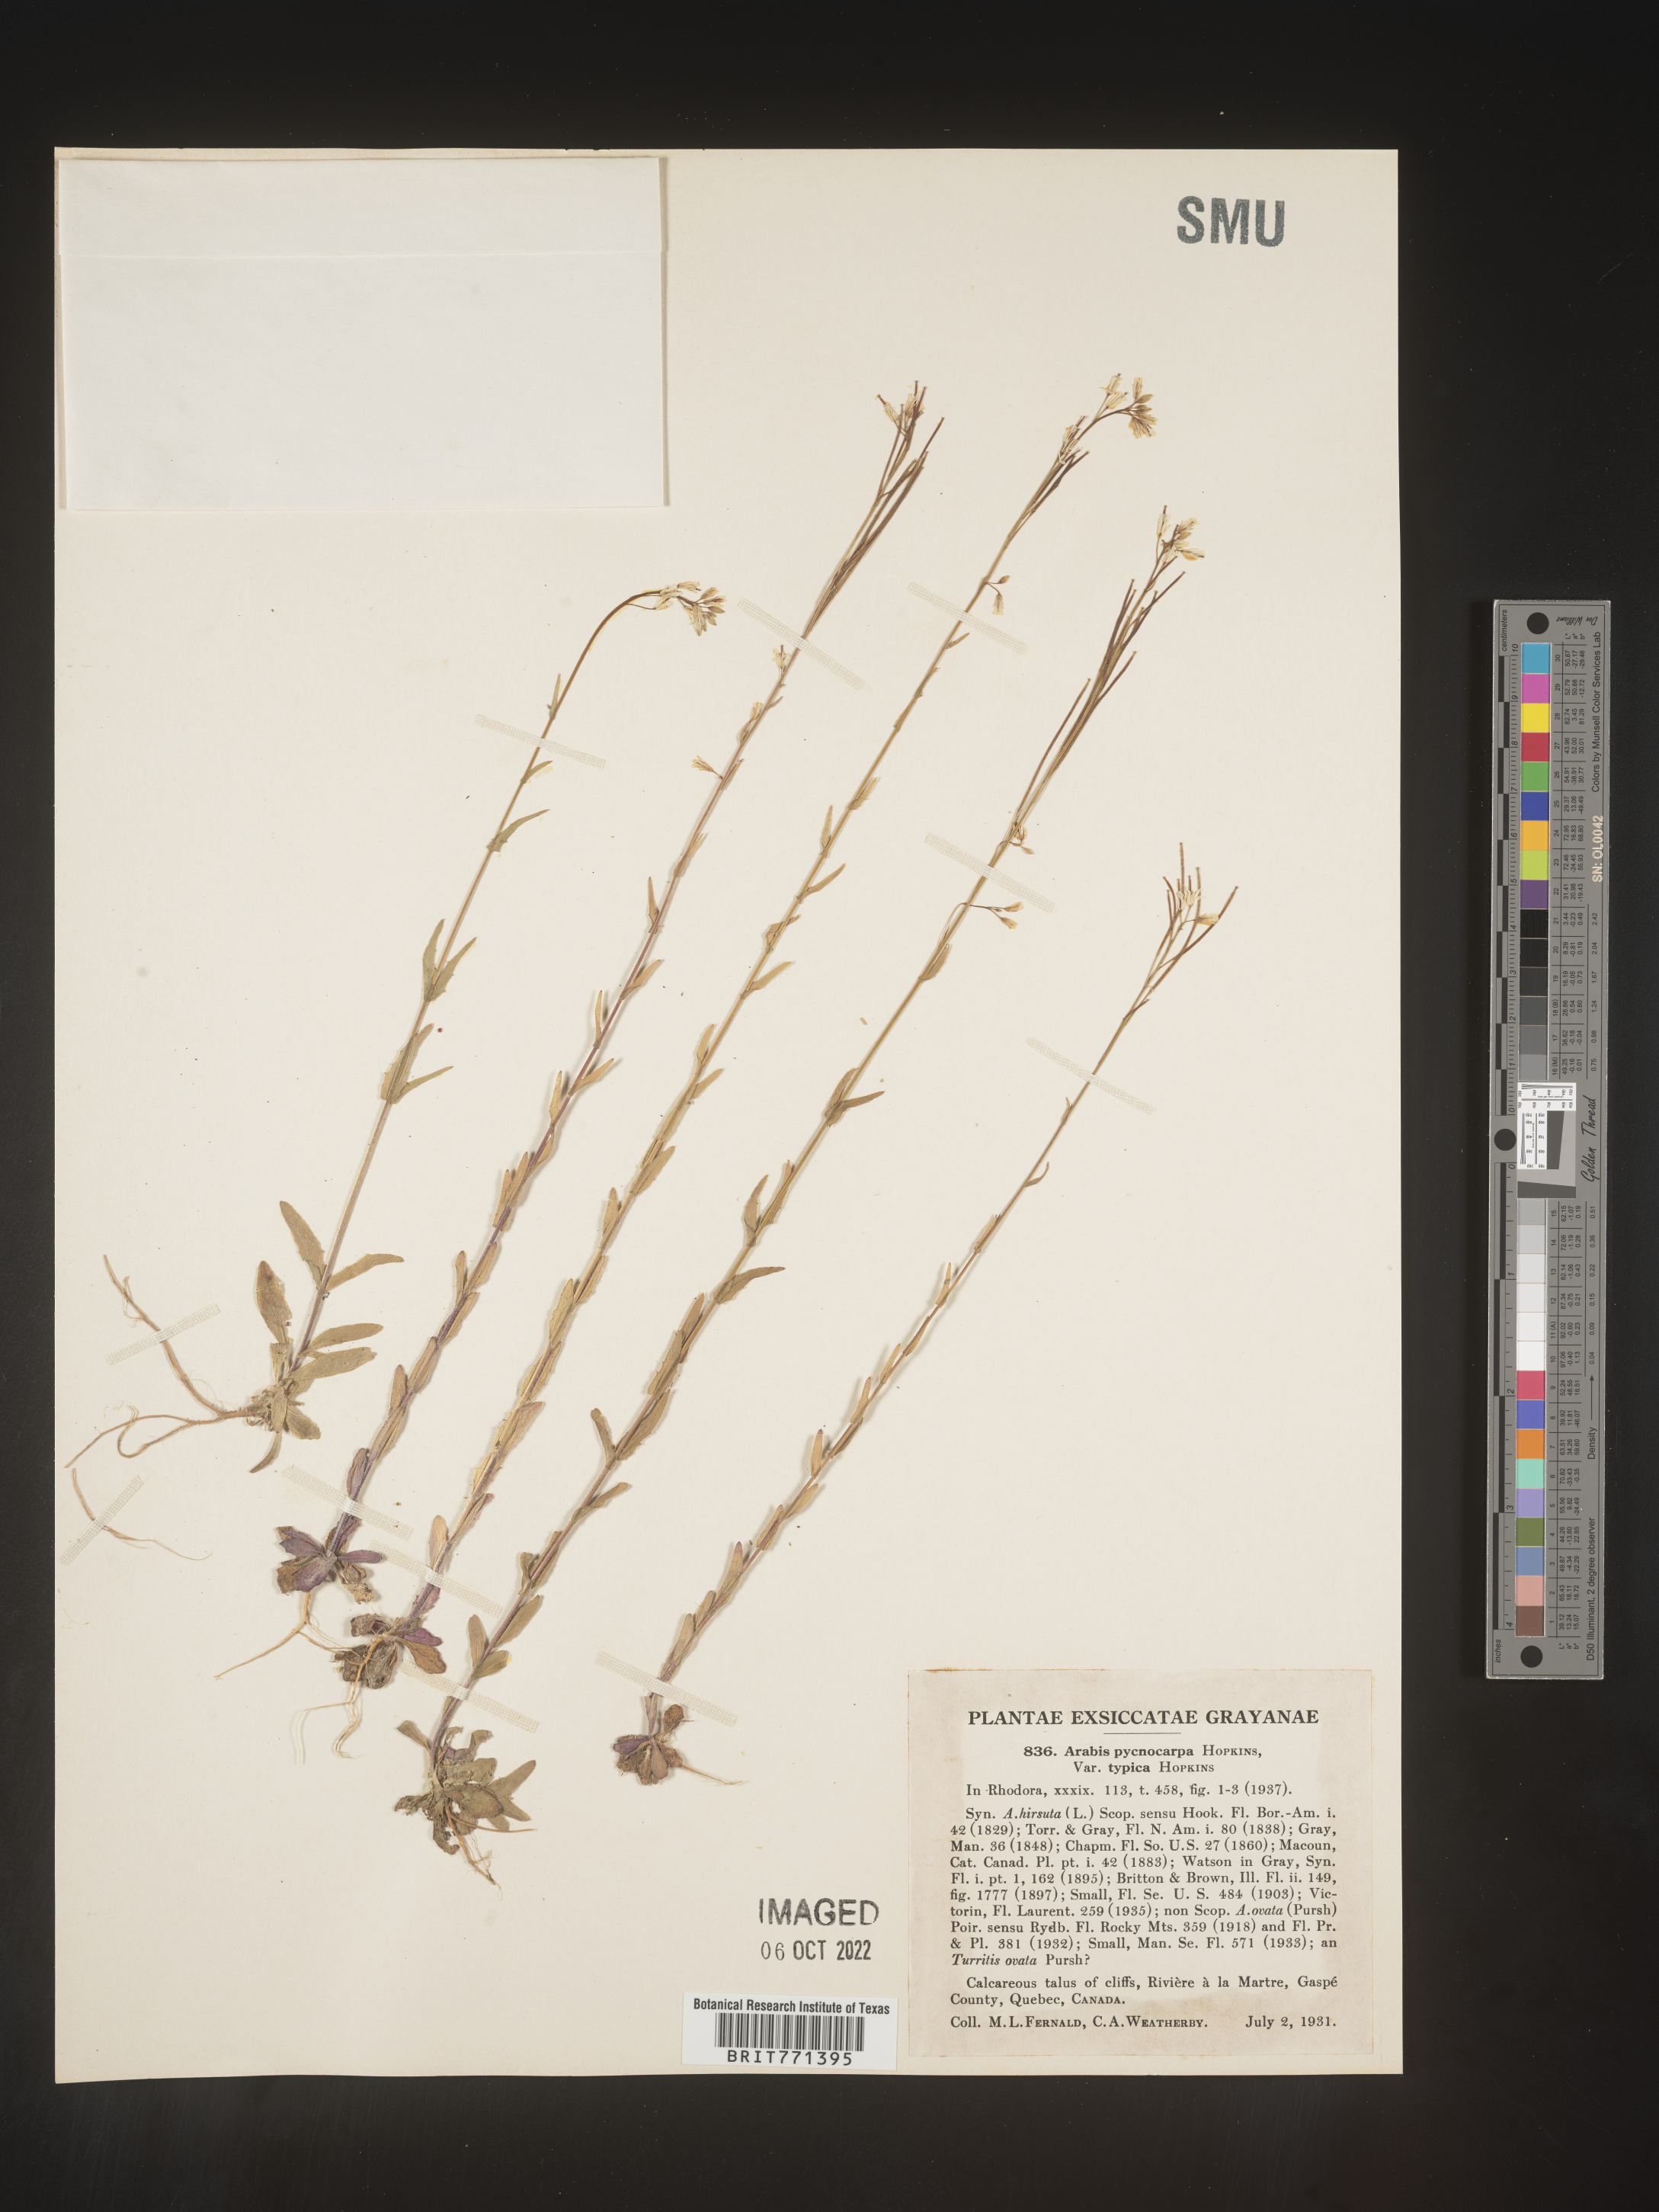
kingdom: Plantae
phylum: Tracheophyta
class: Magnoliopsida
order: Brassicales
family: Brassicaceae
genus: Arabis
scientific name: Arabis
